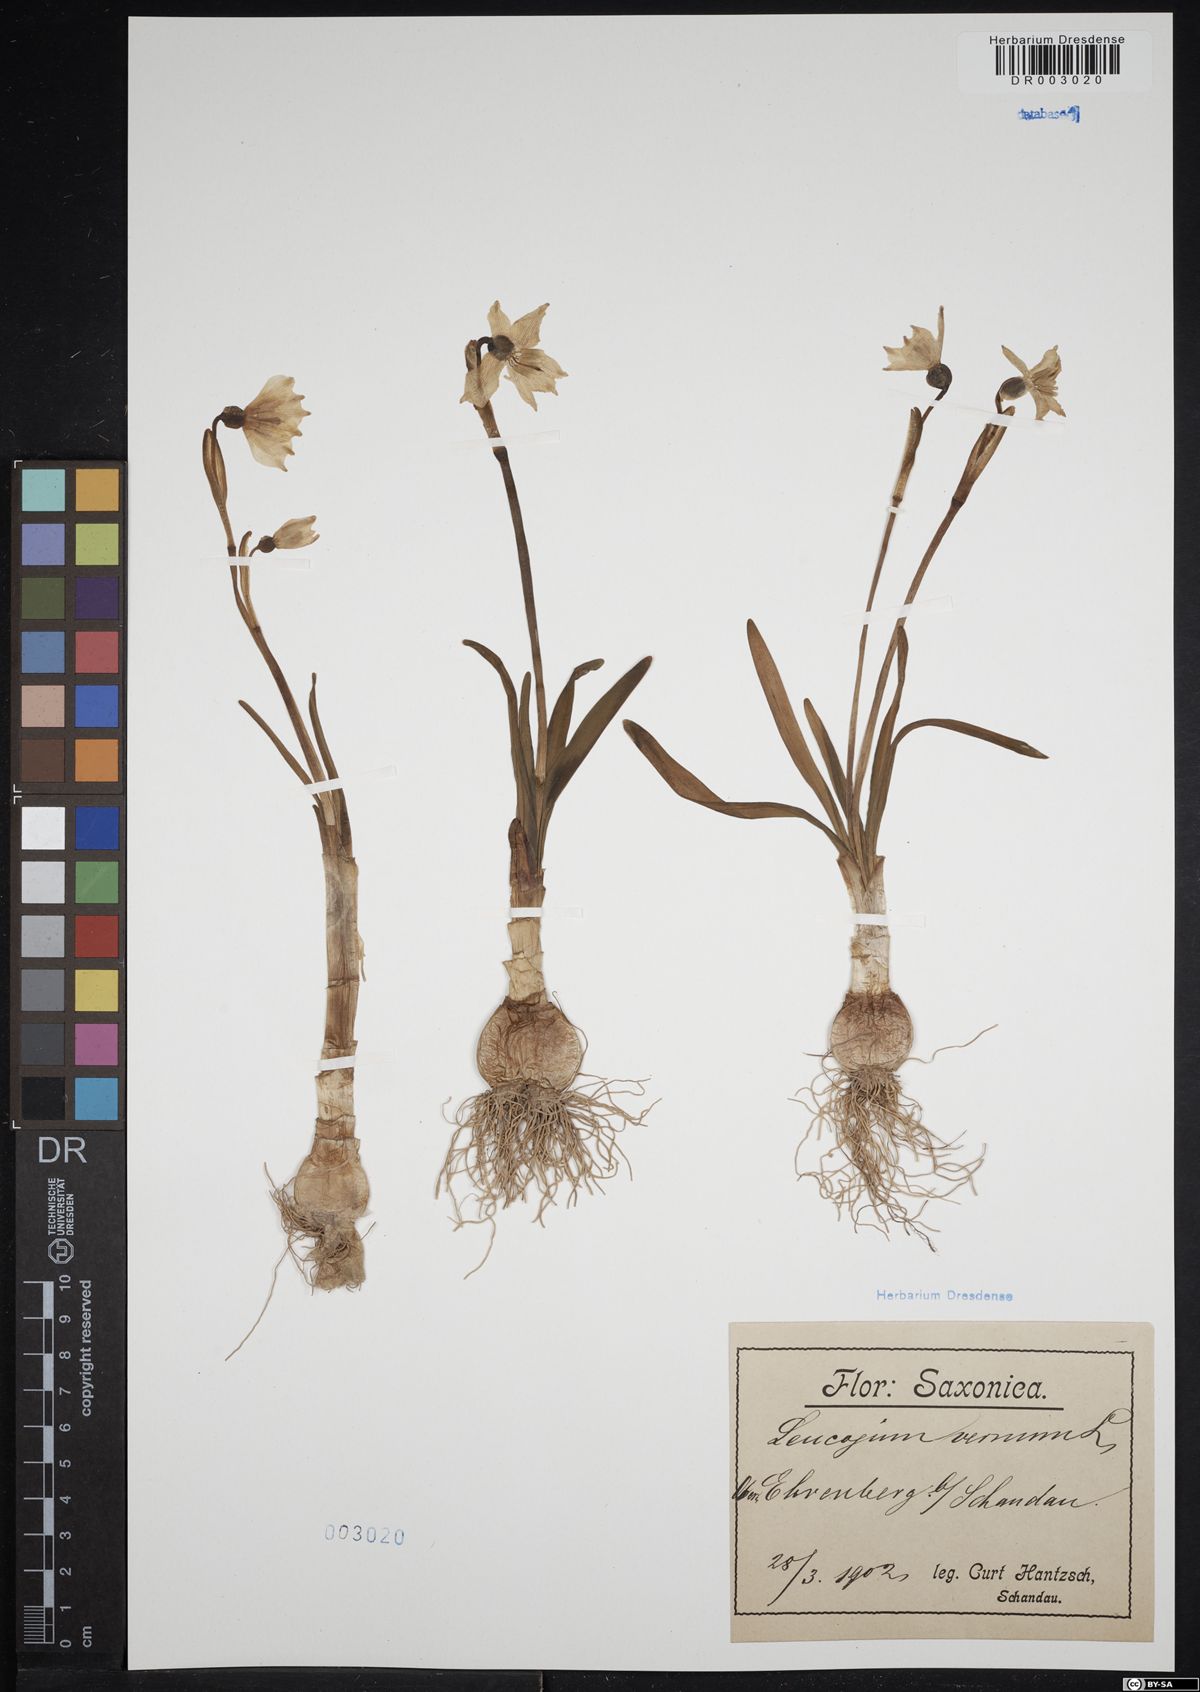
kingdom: Plantae
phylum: Tracheophyta
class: Liliopsida
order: Asparagales
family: Amaryllidaceae
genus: Leucojum
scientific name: Leucojum vernum
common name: Spring snowflake
